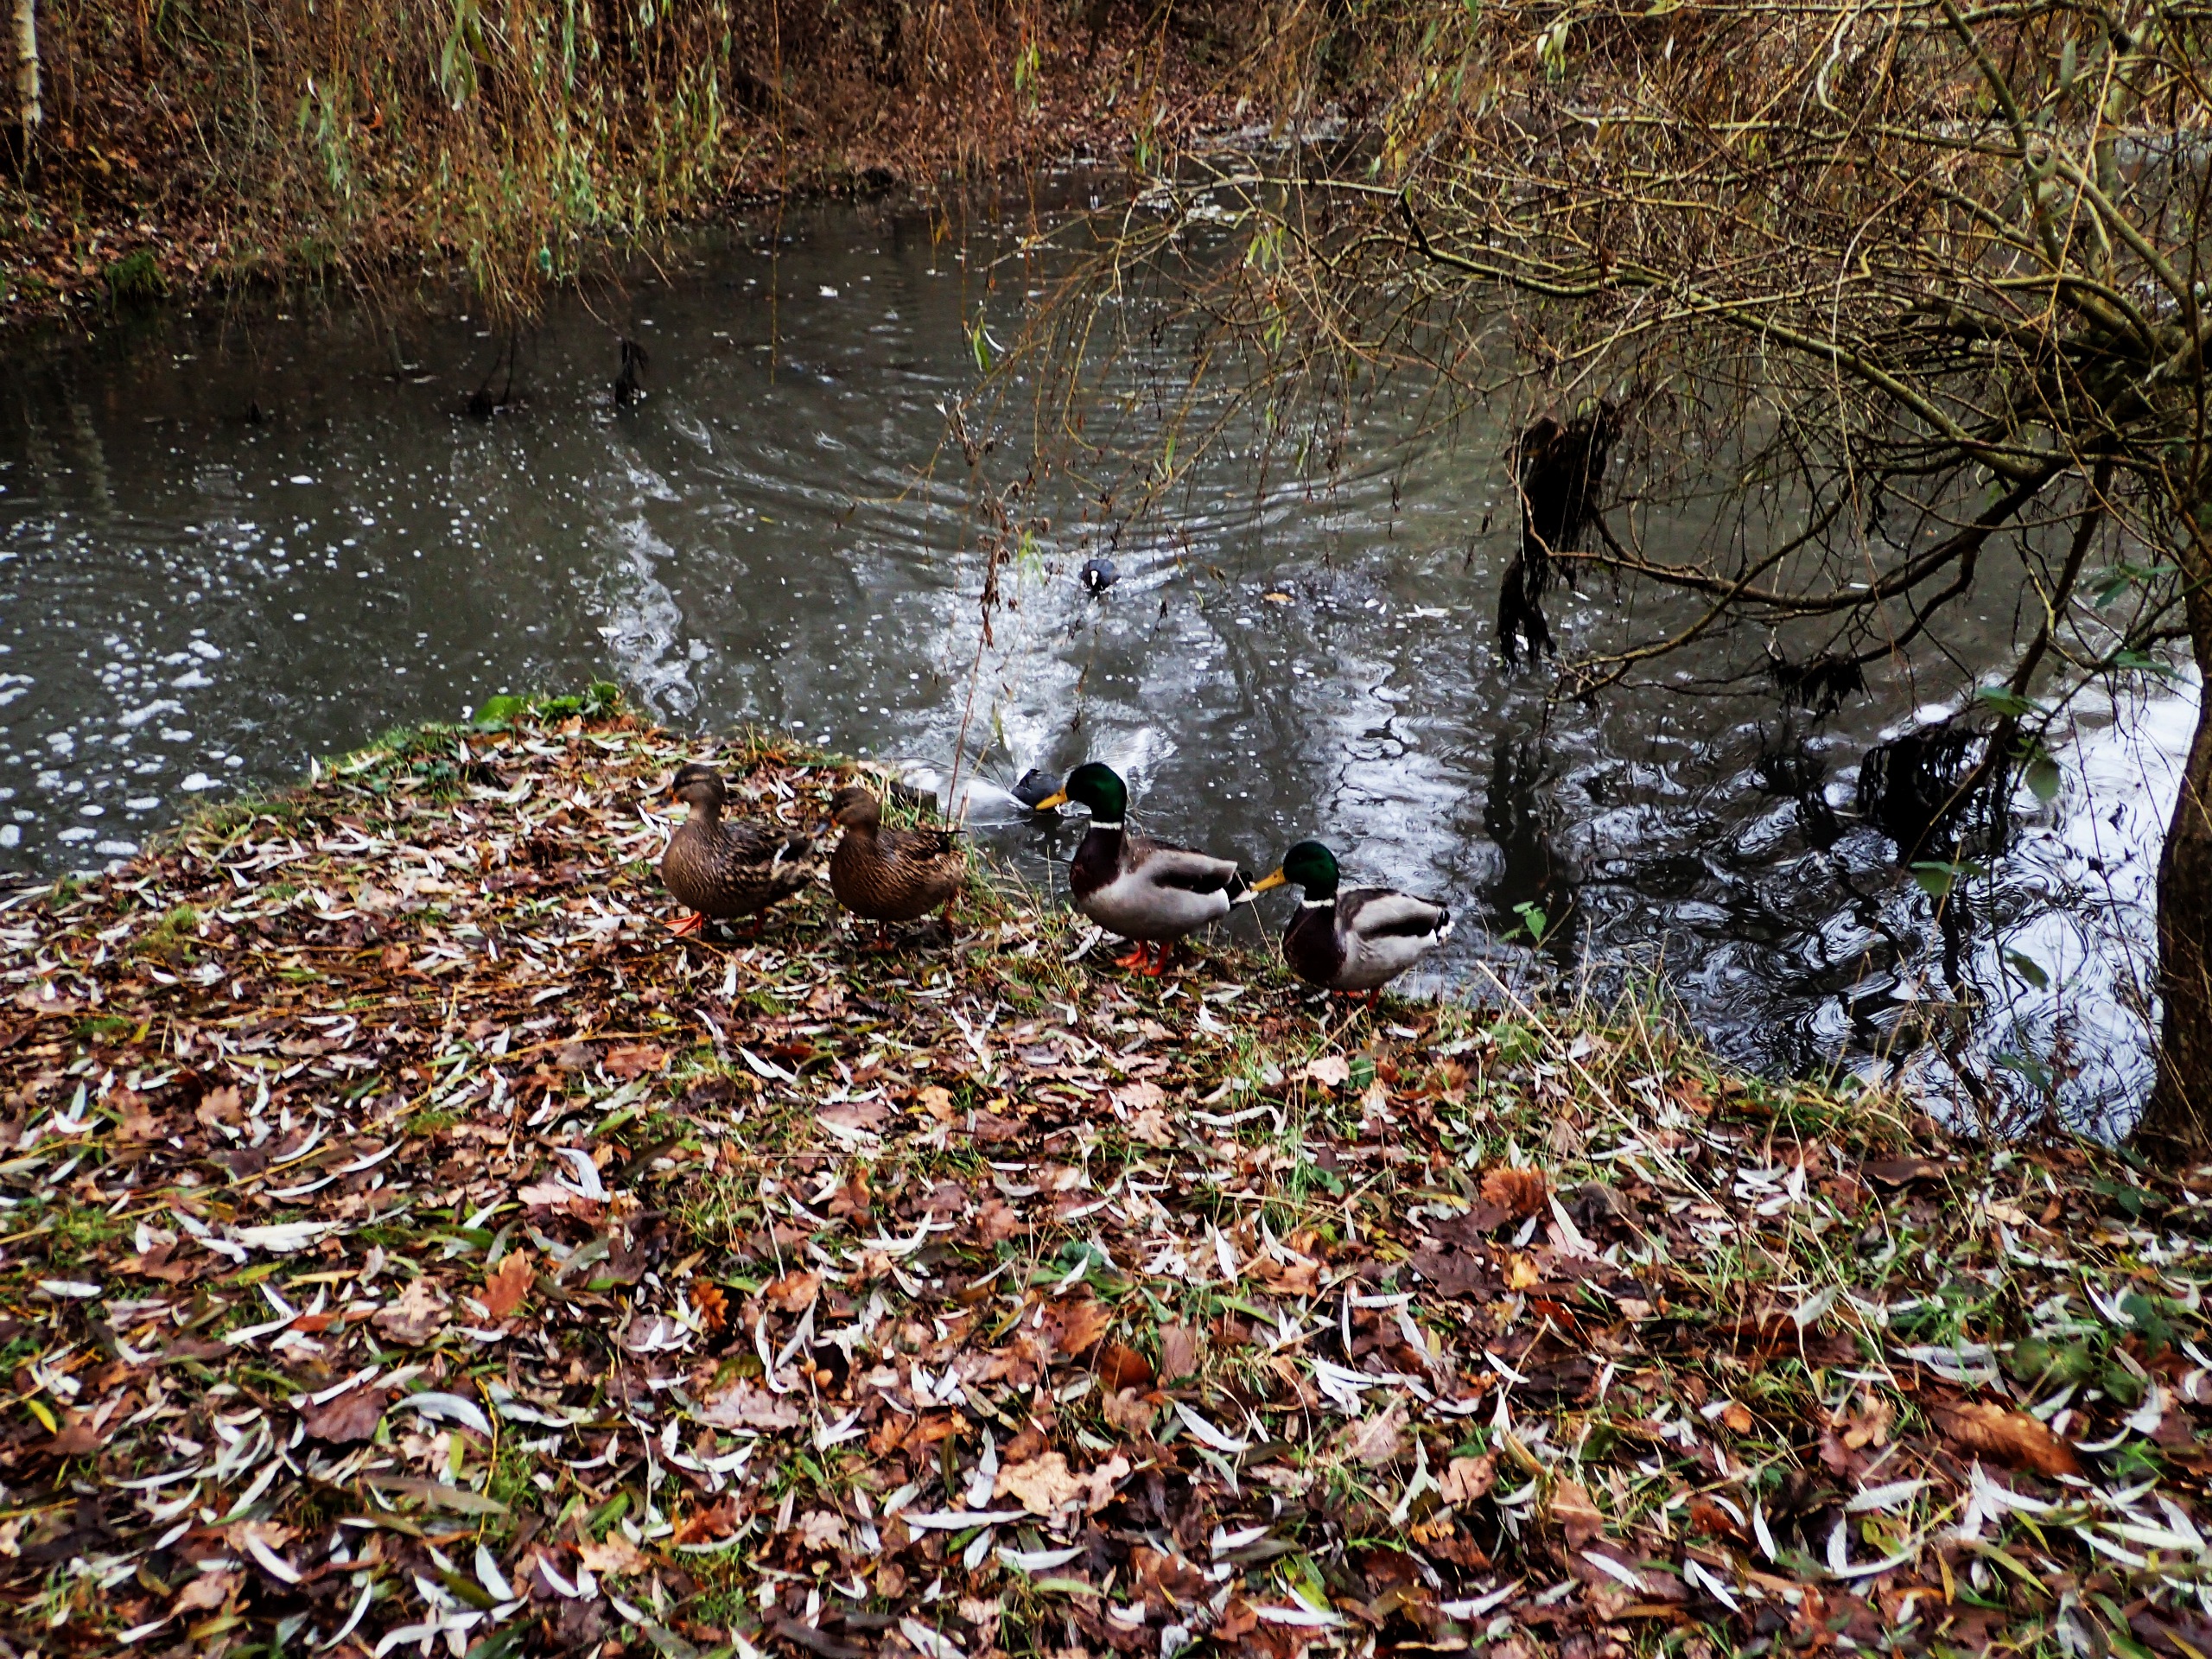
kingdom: Animalia
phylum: Chordata
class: Aves
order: Anseriformes
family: Anatidae
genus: Anas
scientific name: Anas platyrhynchos
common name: Gråand
